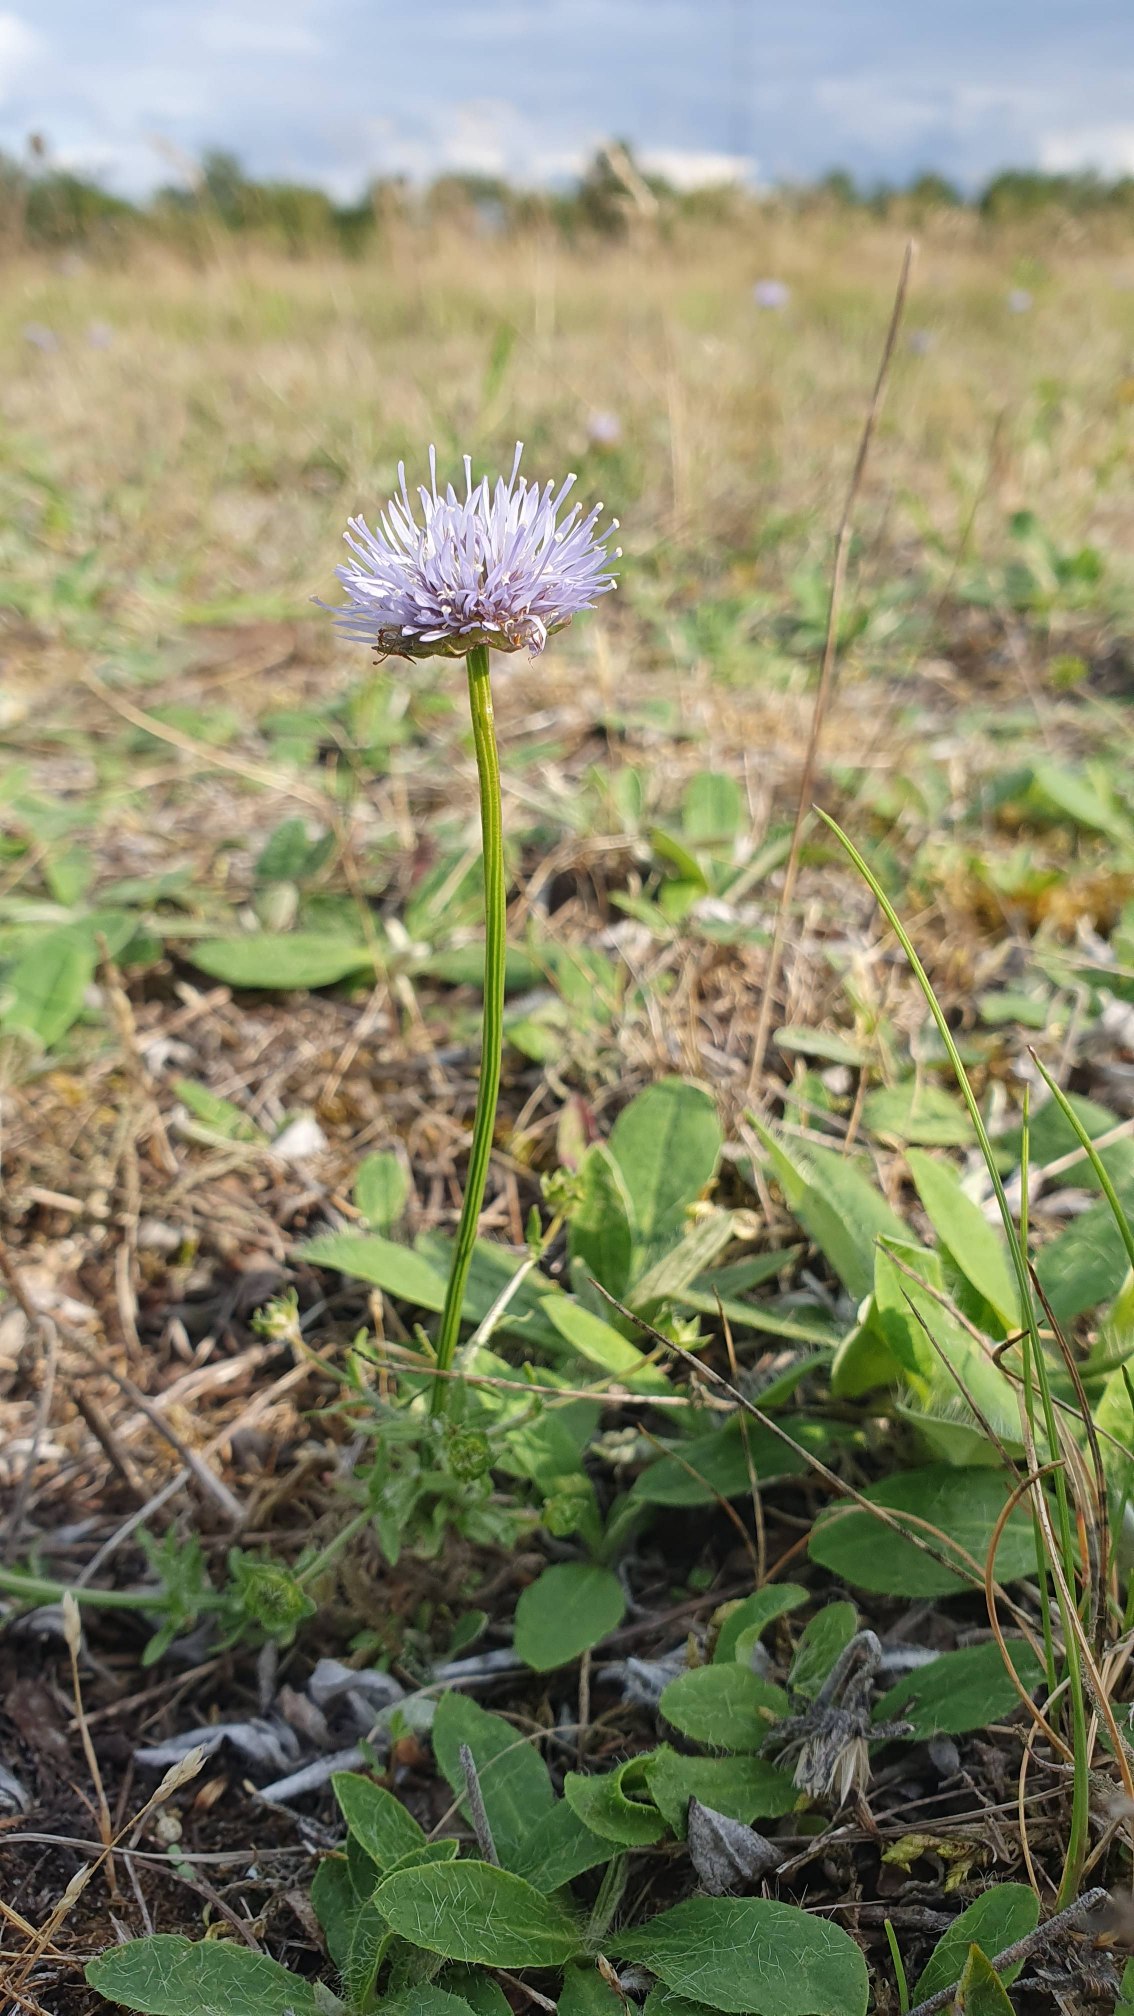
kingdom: Plantae
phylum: Tracheophyta
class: Magnoliopsida
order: Asterales
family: Campanulaceae
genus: Jasione
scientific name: Jasione montana
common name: Blåmunke
